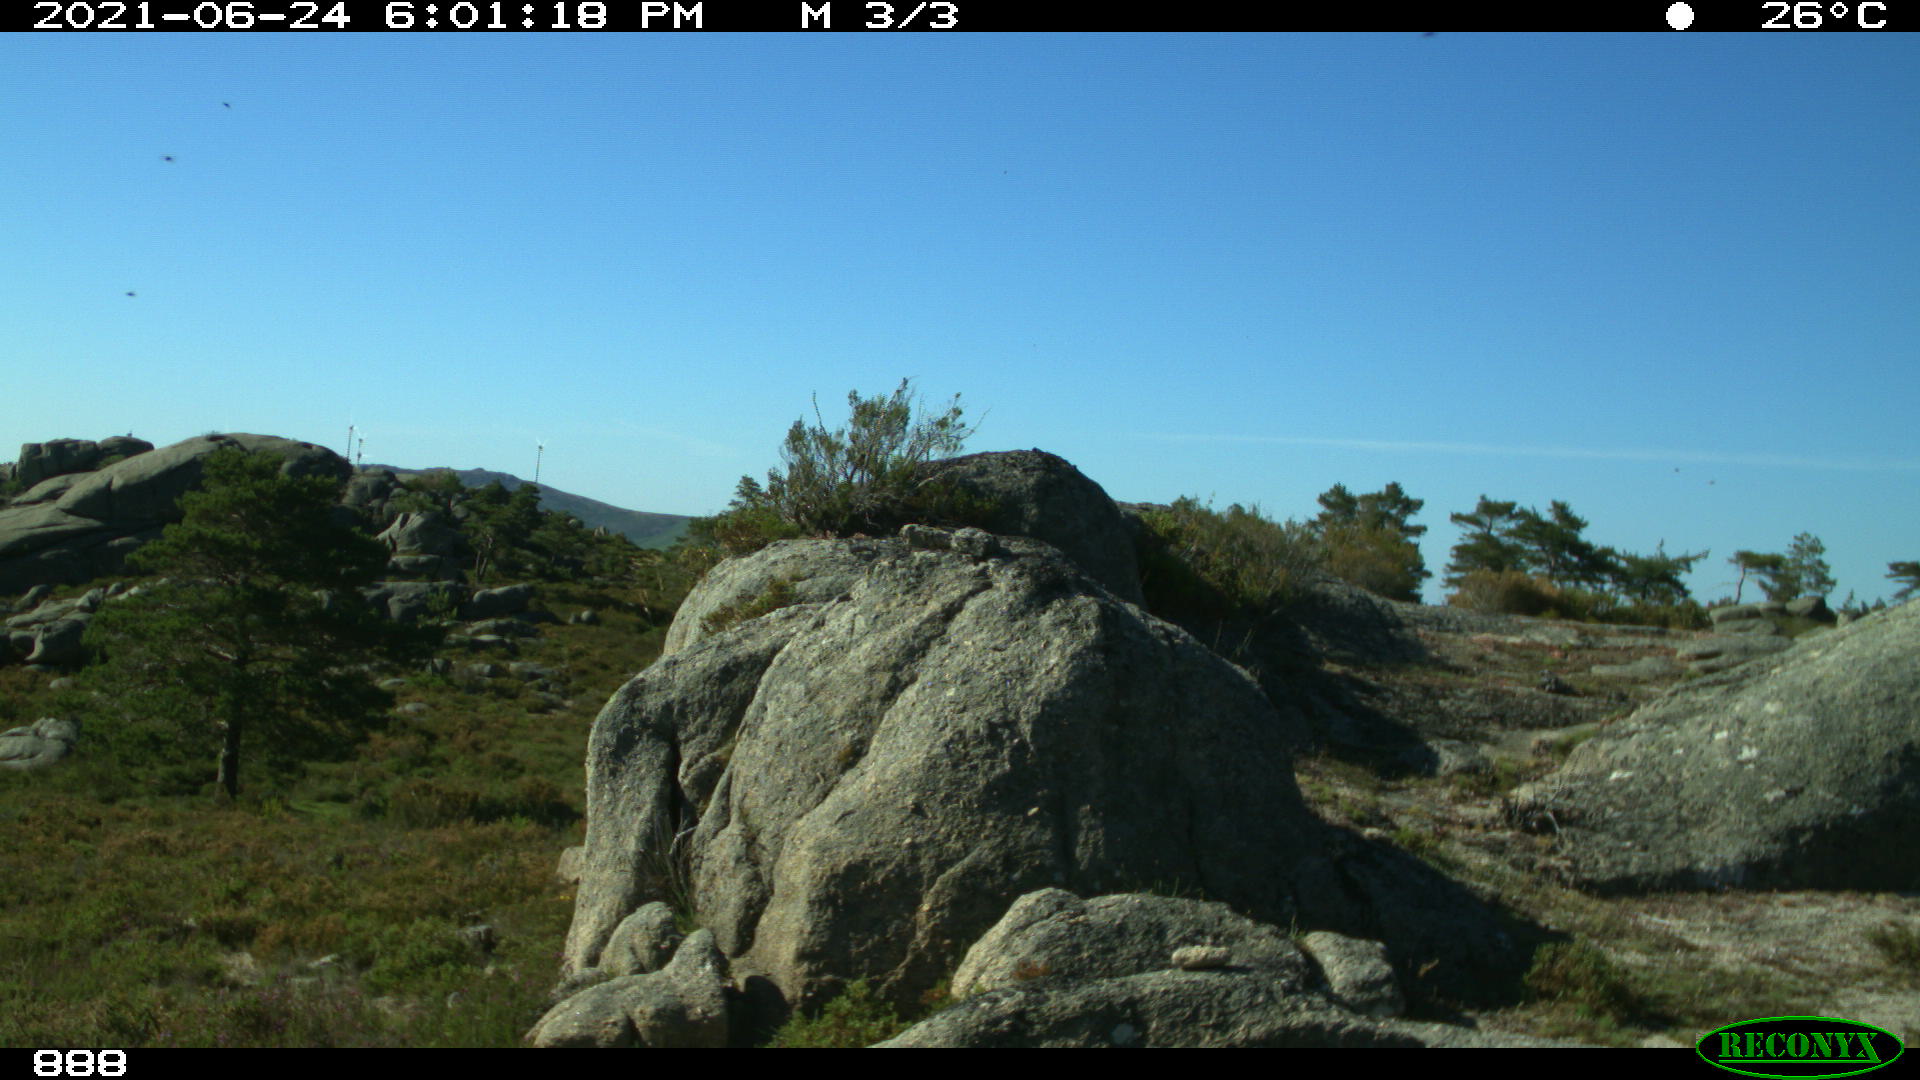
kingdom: Animalia
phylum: Chordata
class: Mammalia
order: Perissodactyla
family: Equidae
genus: Equus
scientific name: Equus caballus
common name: Horse
